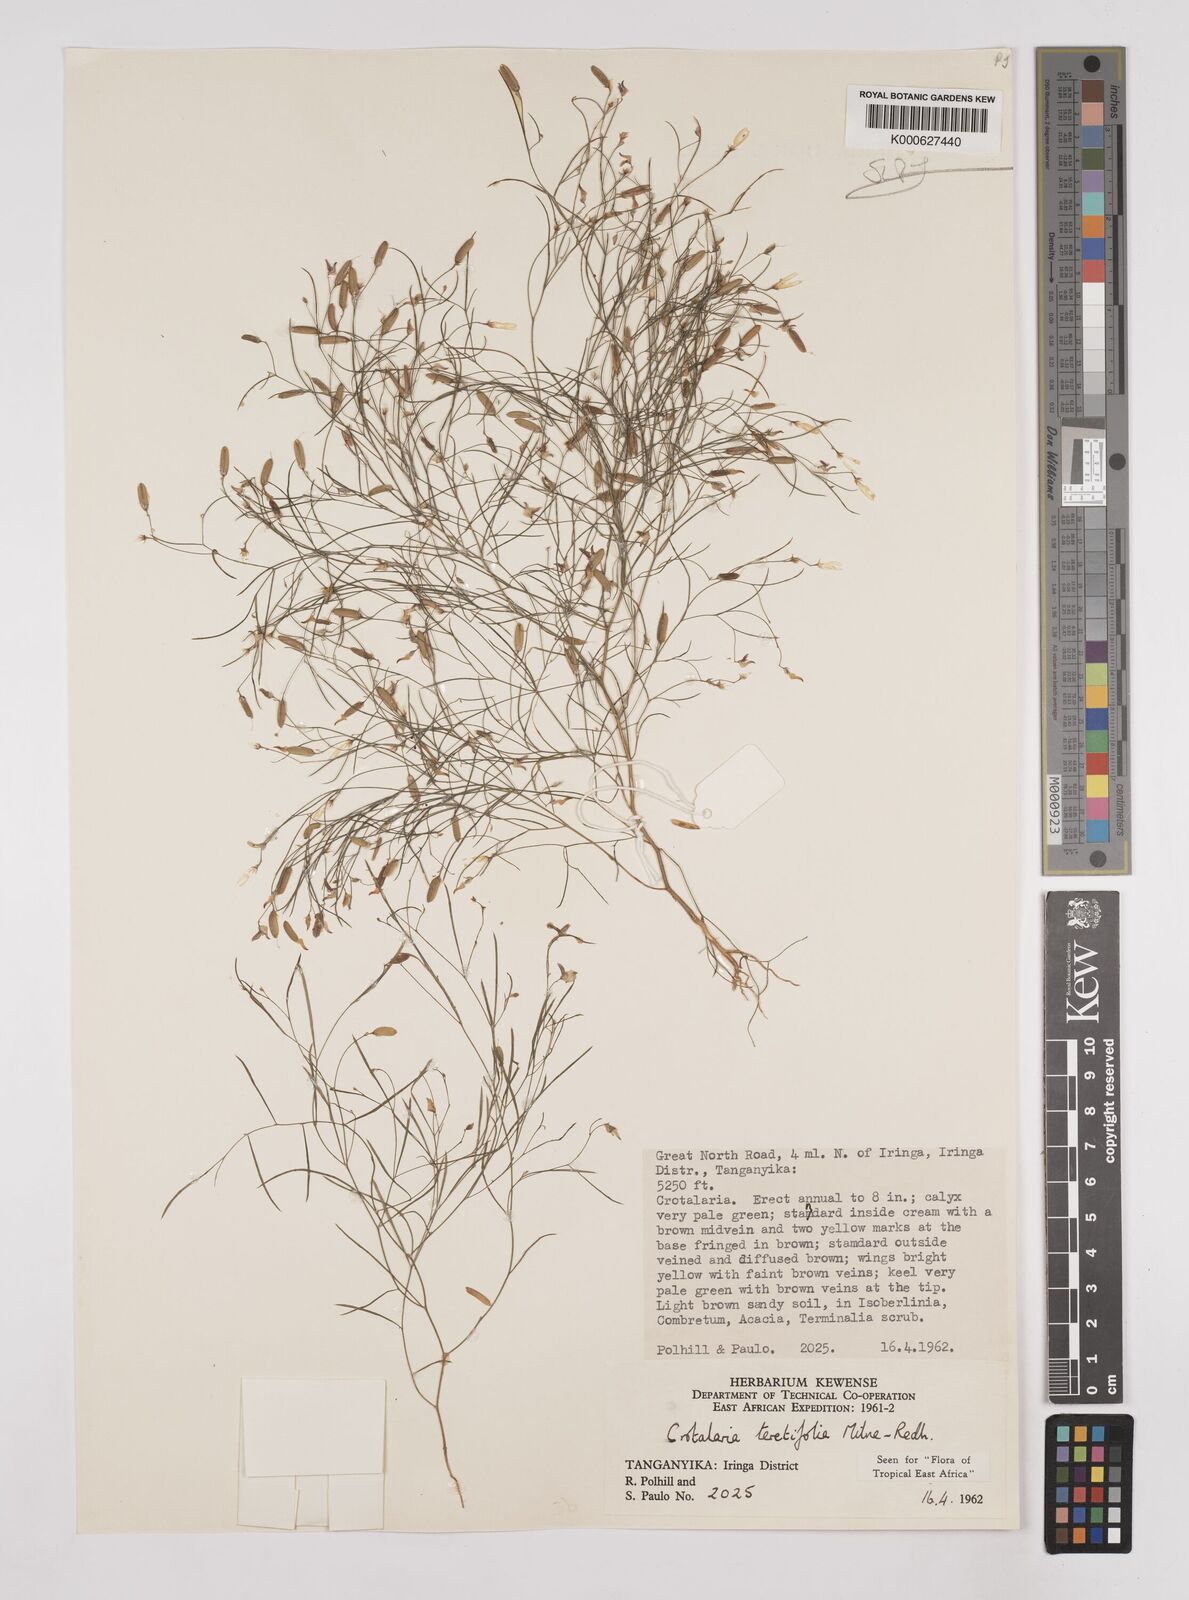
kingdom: Plantae
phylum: Tracheophyta
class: Magnoliopsida
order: Fabales
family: Fabaceae
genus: Crotalaria
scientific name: Crotalaria teretifolia
